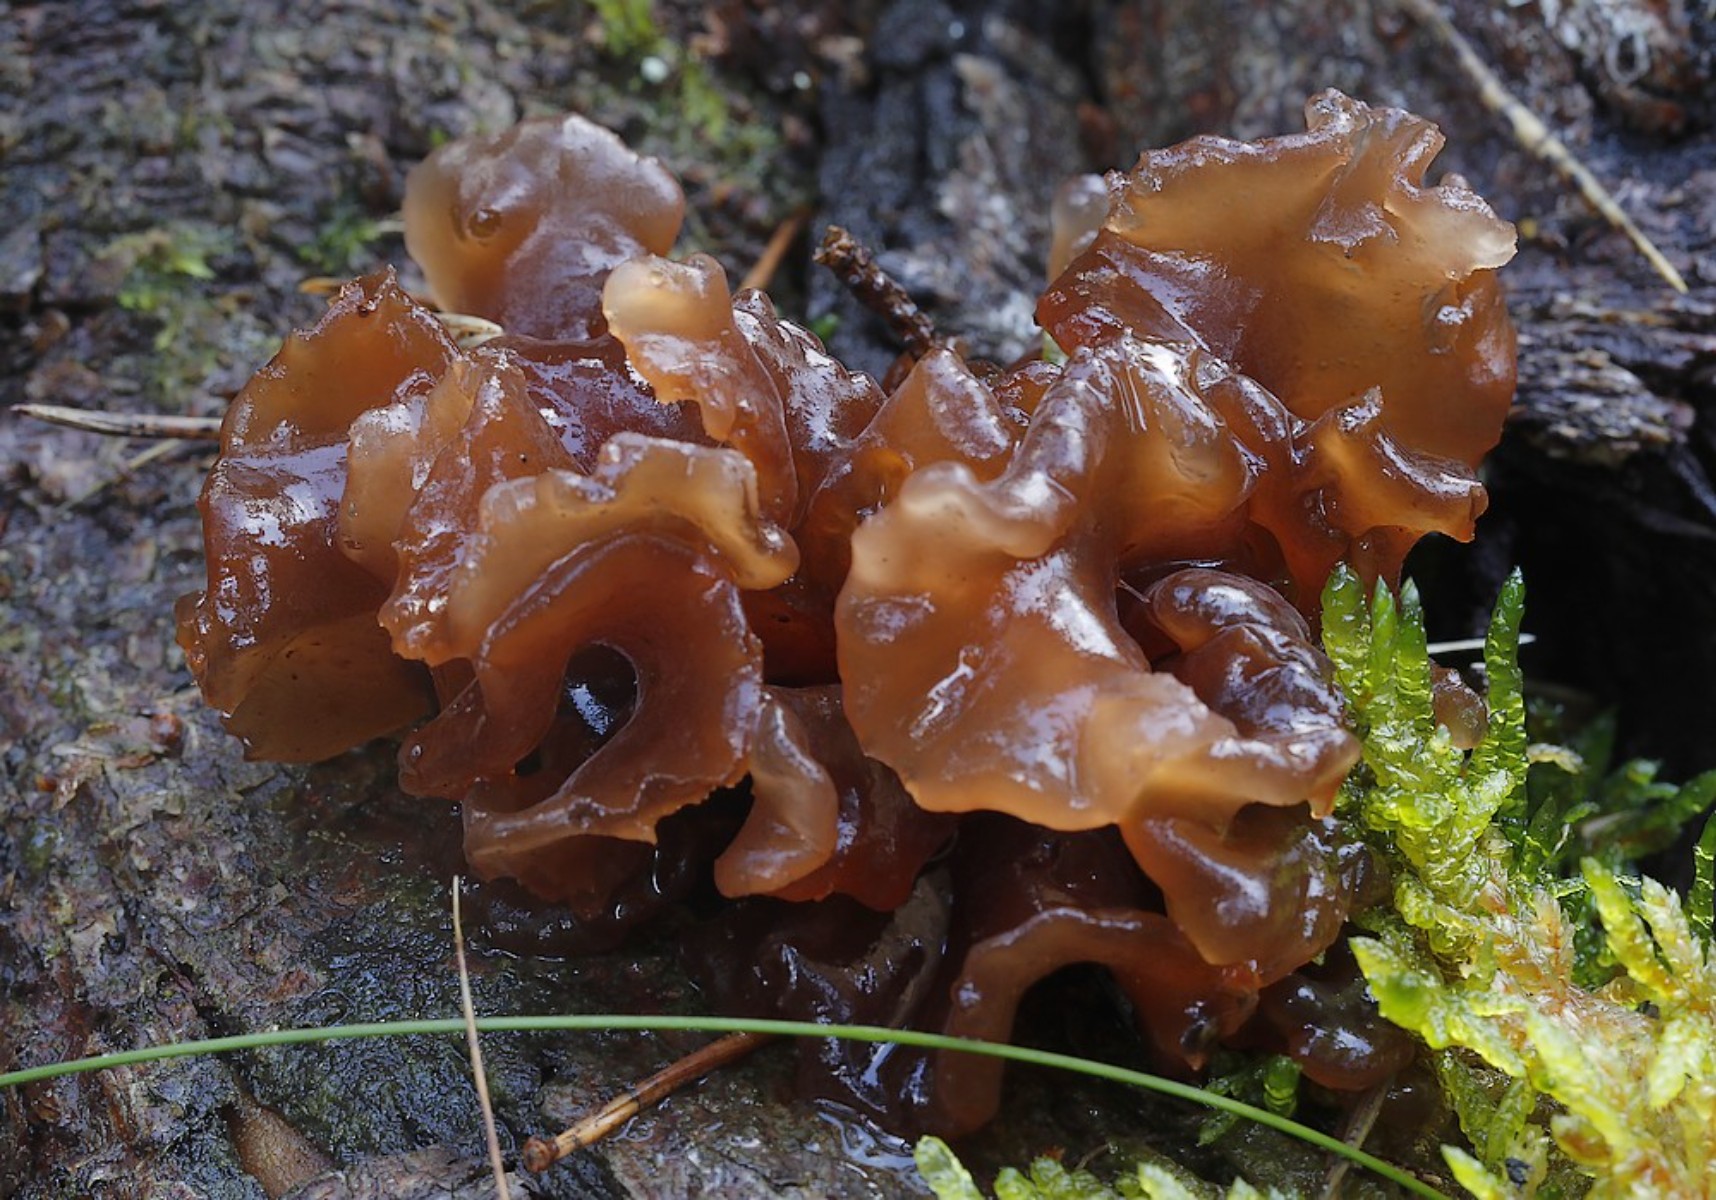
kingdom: Fungi
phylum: Basidiomycota
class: Tremellomycetes
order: Tremellales
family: Tremellaceae
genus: Phaeotremella
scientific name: Phaeotremella foliacea
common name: brun bævresvamp
